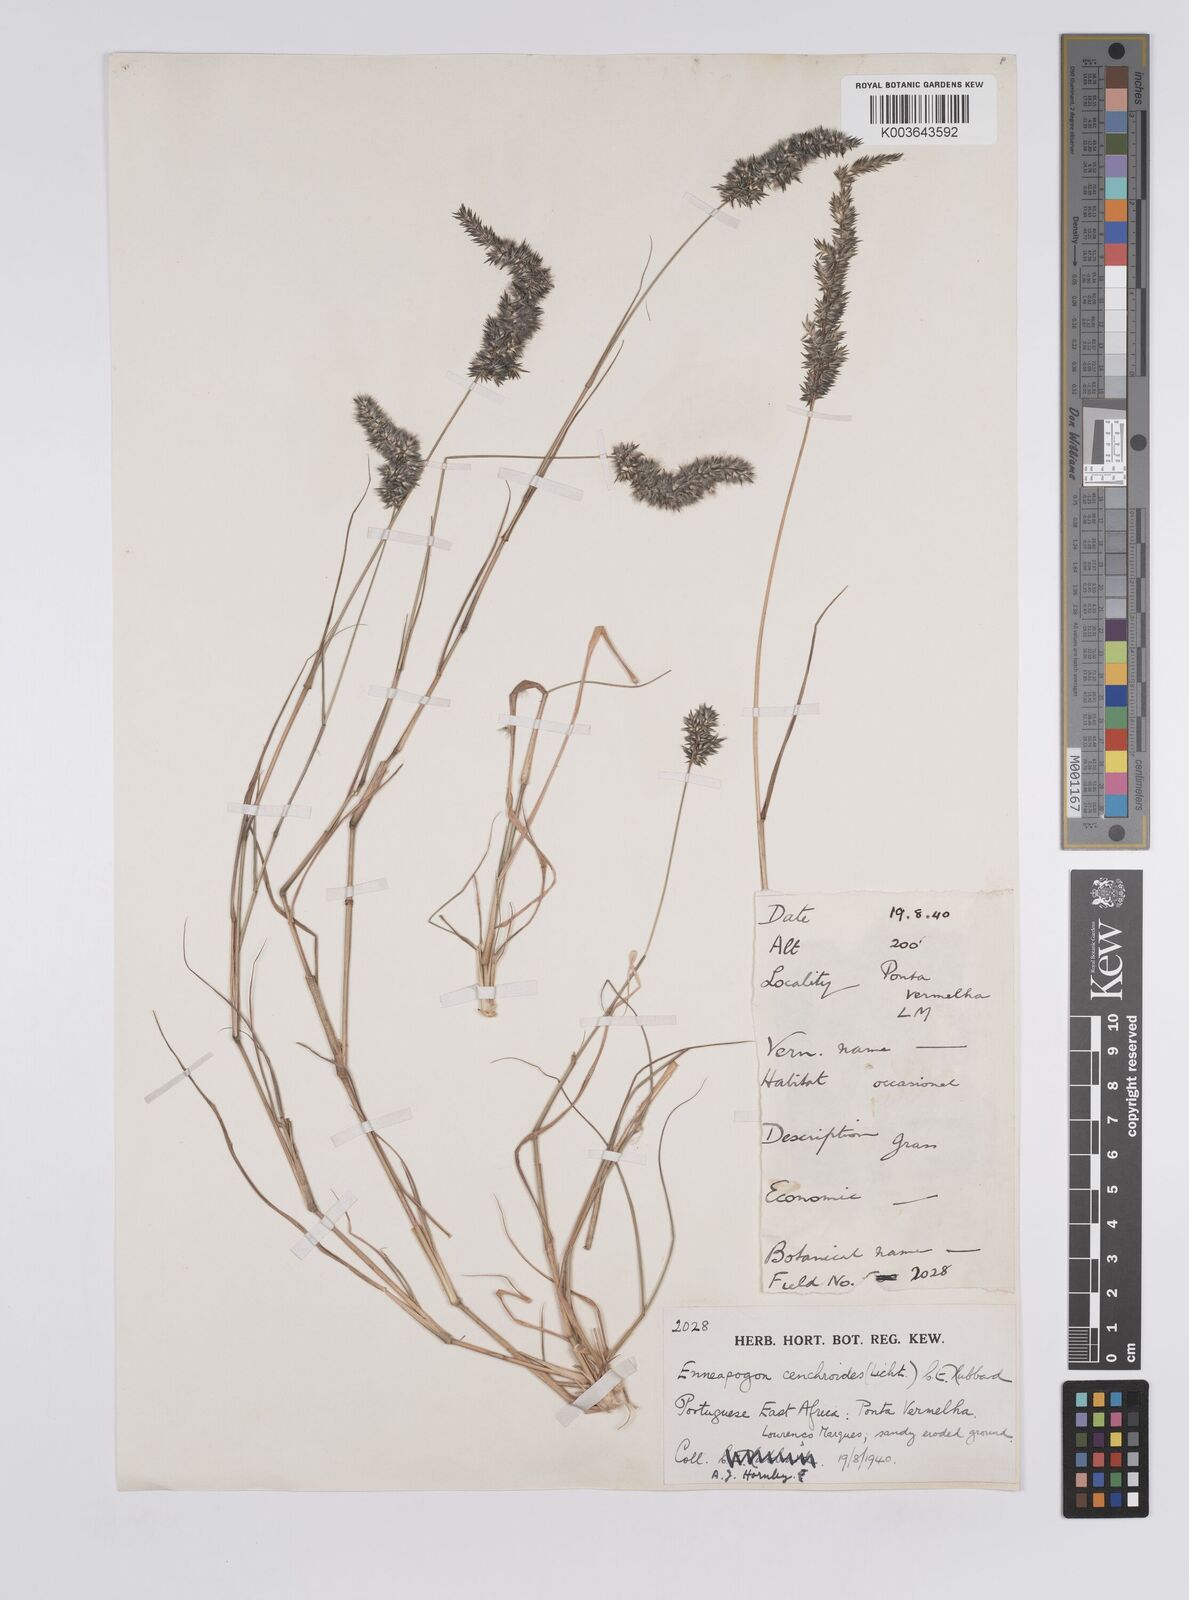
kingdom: Plantae
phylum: Tracheophyta
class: Liliopsida
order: Poales
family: Poaceae
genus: Enneapogon
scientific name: Enneapogon cenchroides
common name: Soft feather pappusgrass
